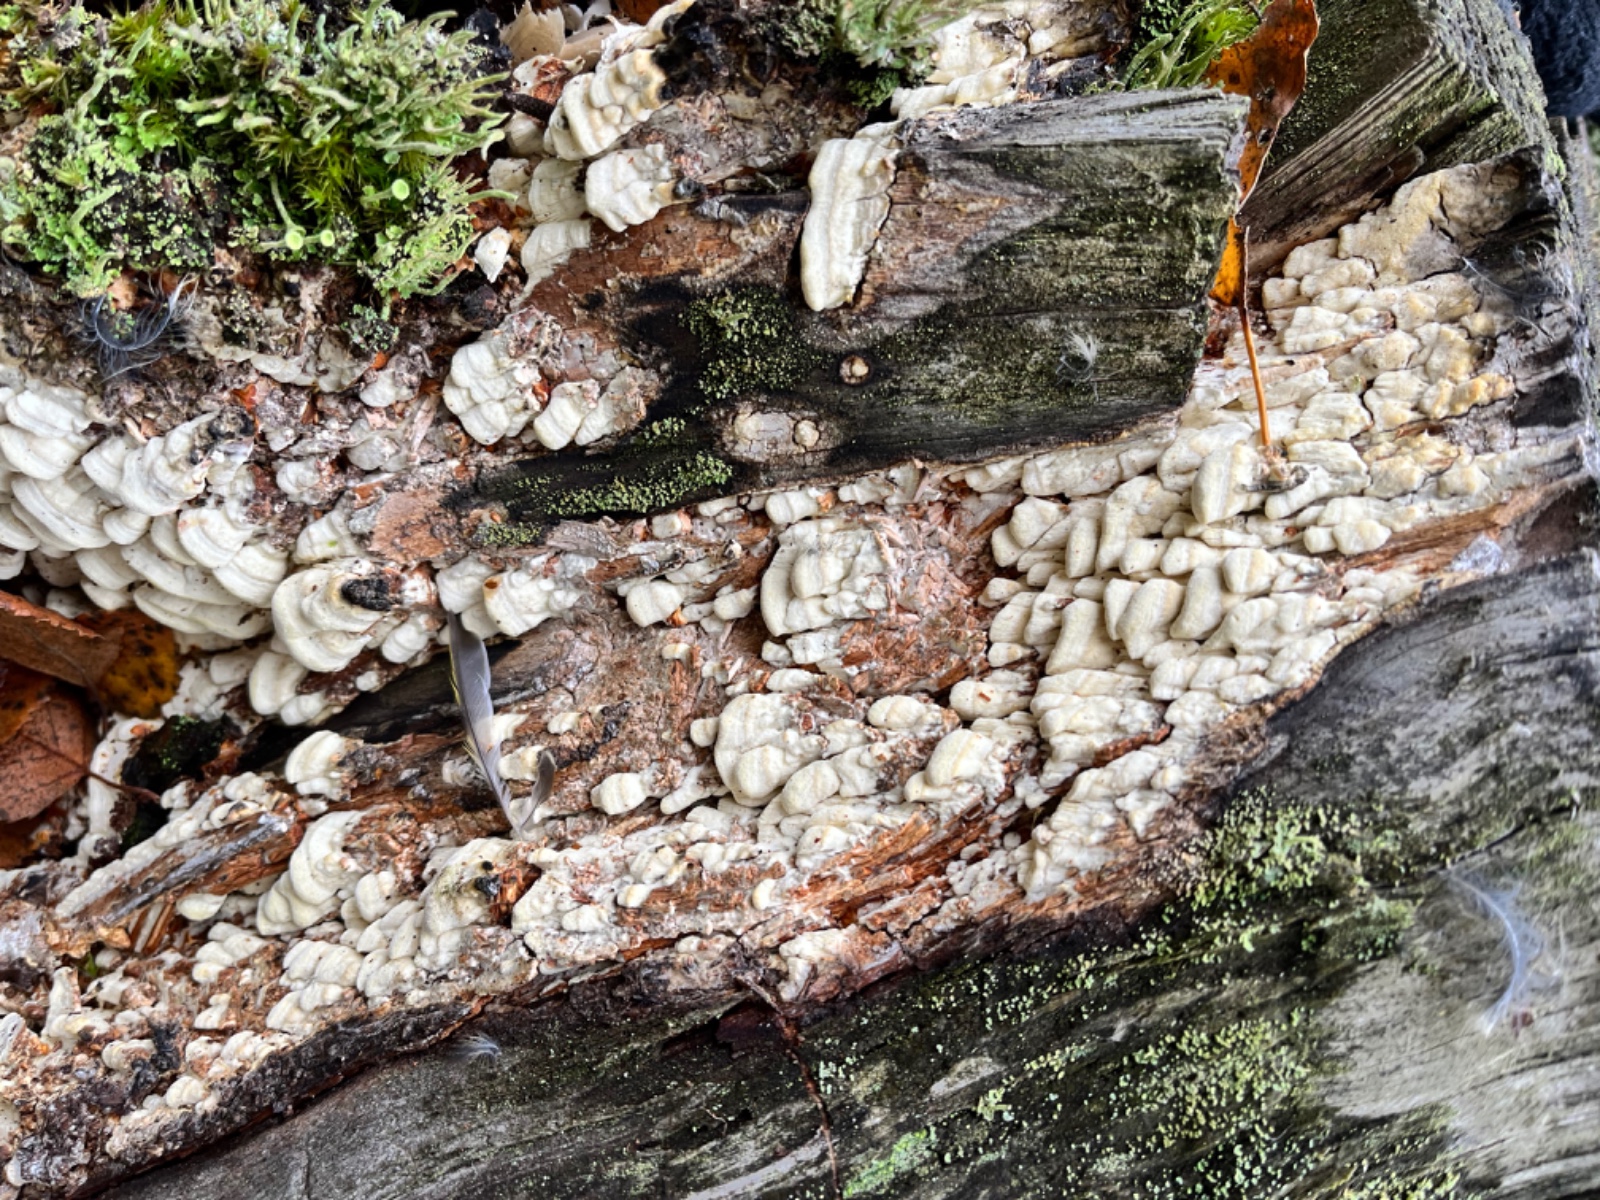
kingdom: Fungi
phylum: Basidiomycota
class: Agaricomycetes
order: Polyporales
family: Fomitopsidaceae
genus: Daedalea
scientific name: Daedalea xantha
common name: gul sejporesvamp
